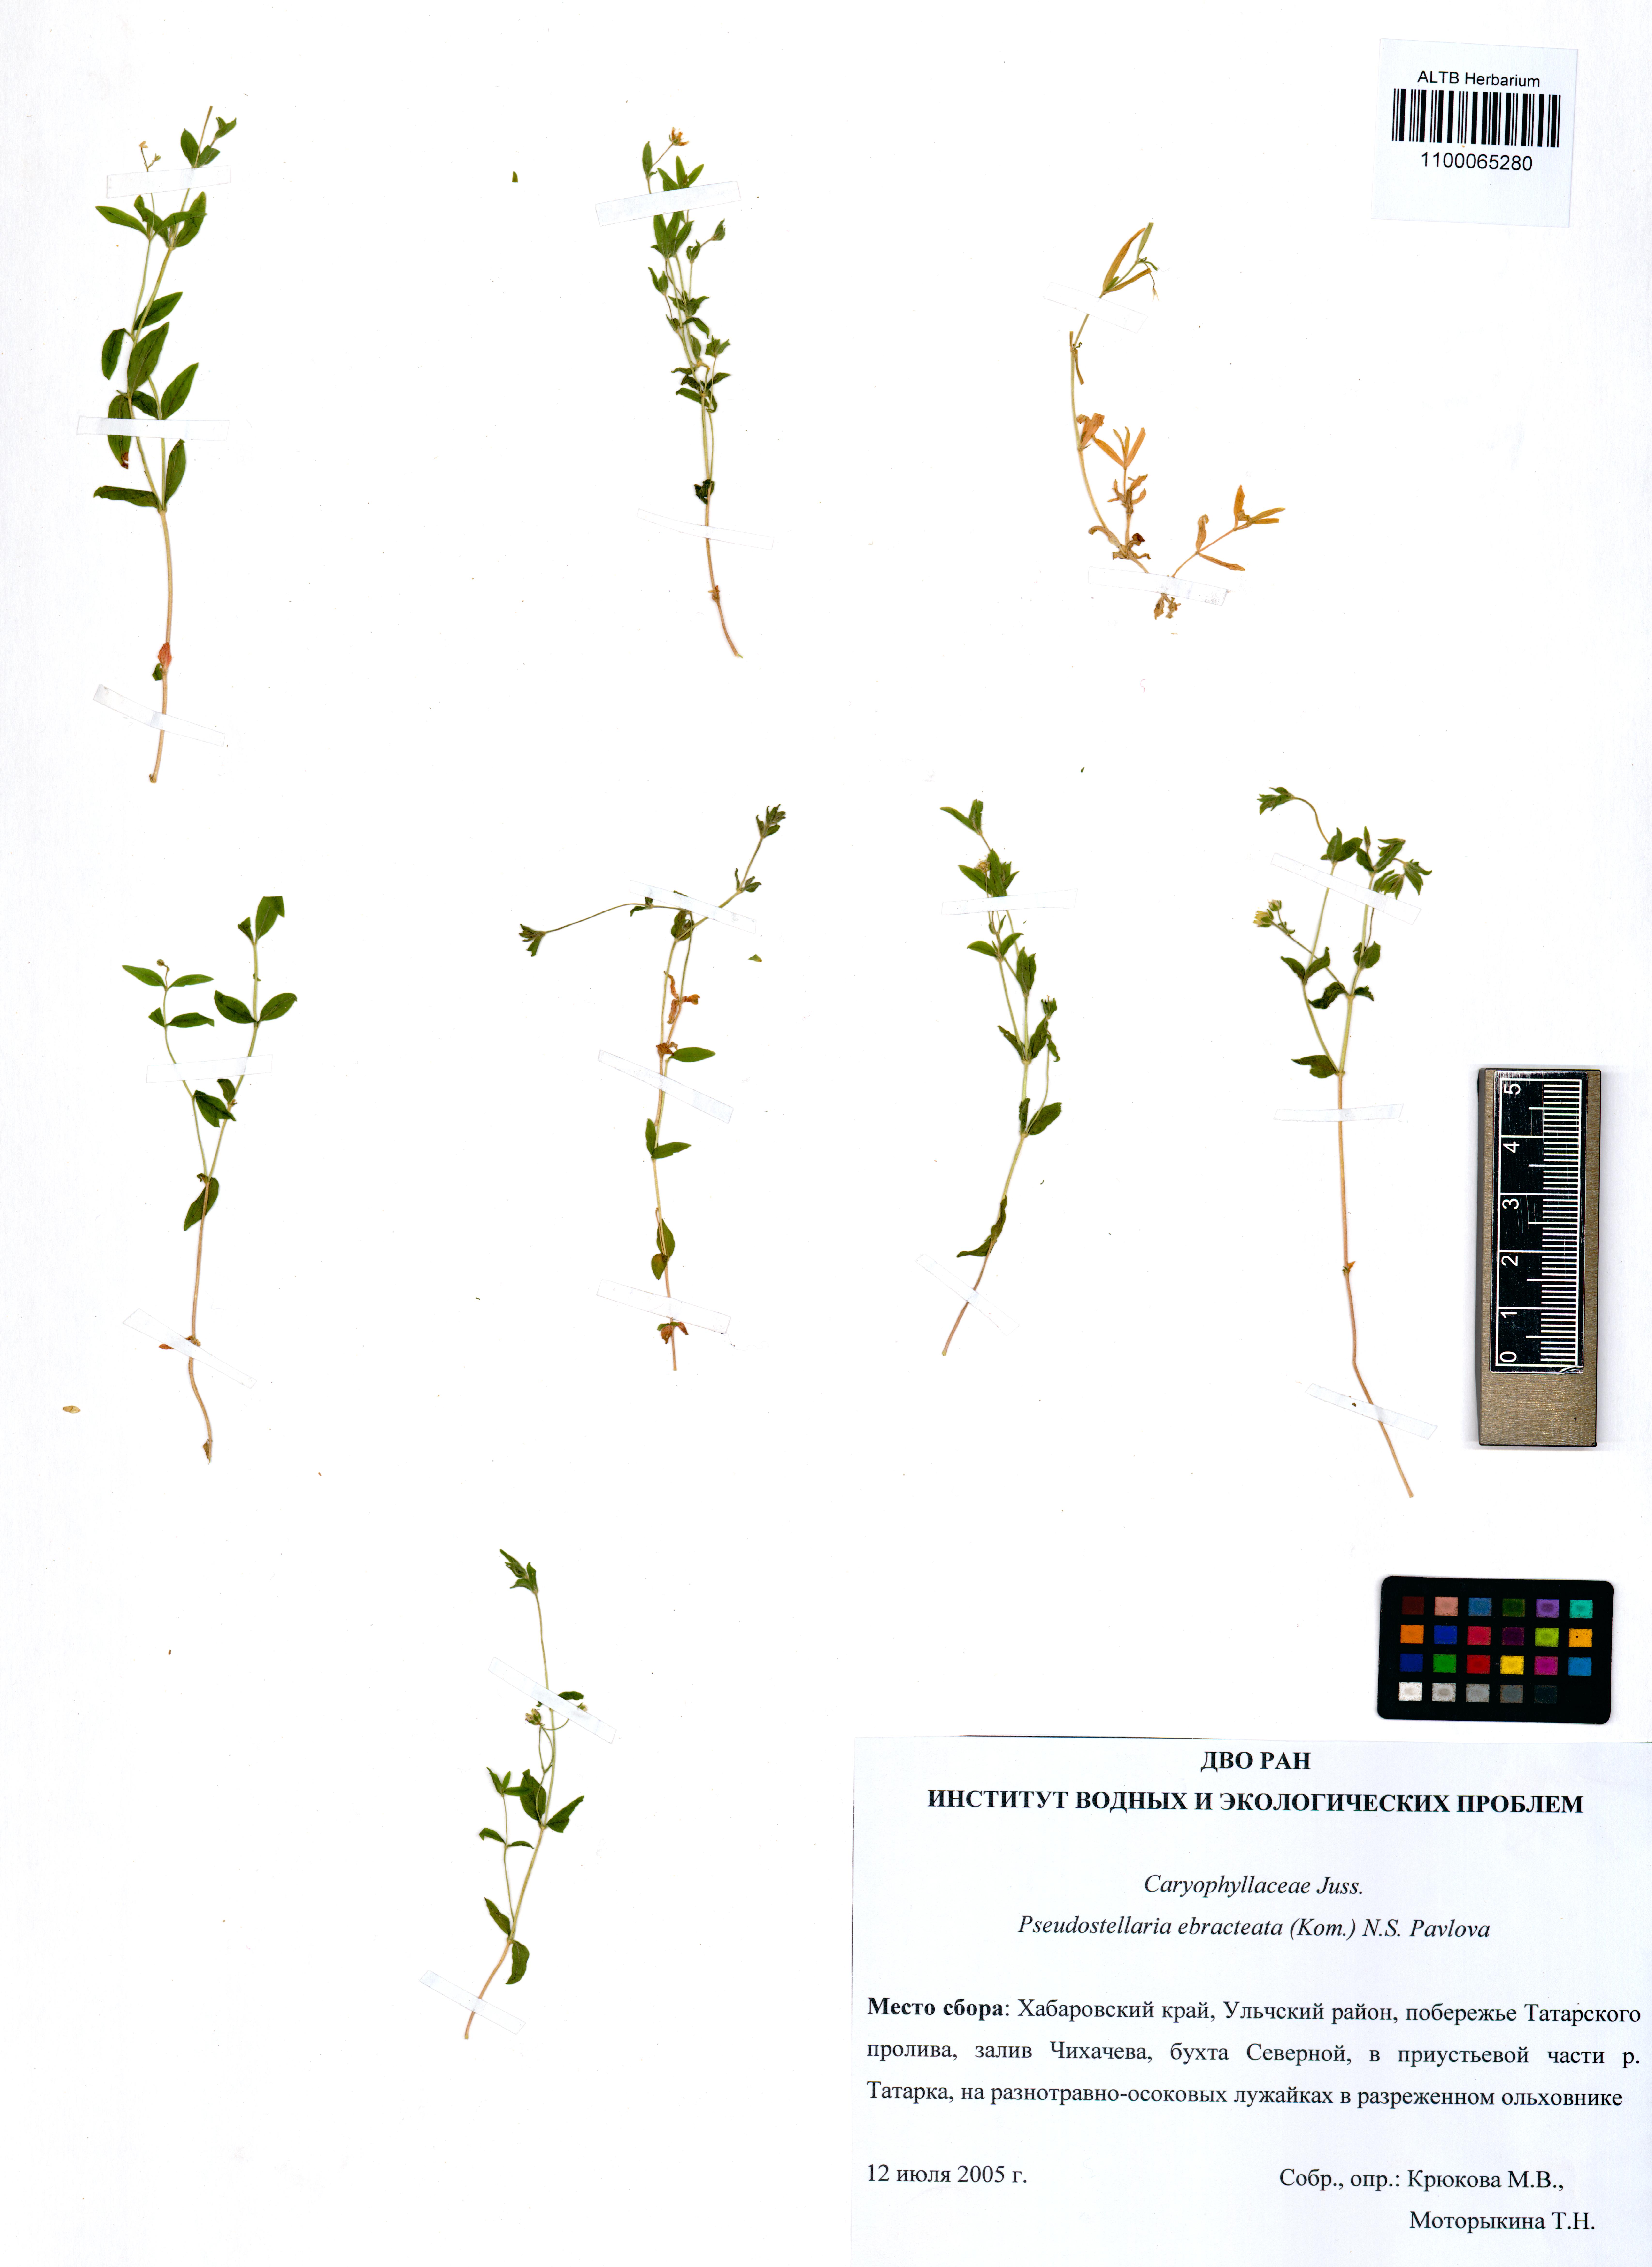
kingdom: Plantae
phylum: Tracheophyta
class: Magnoliopsida
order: Caryophyllales
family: Caryophyllaceae
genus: Pseudostellaria
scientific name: Pseudostellaria ebracteata
